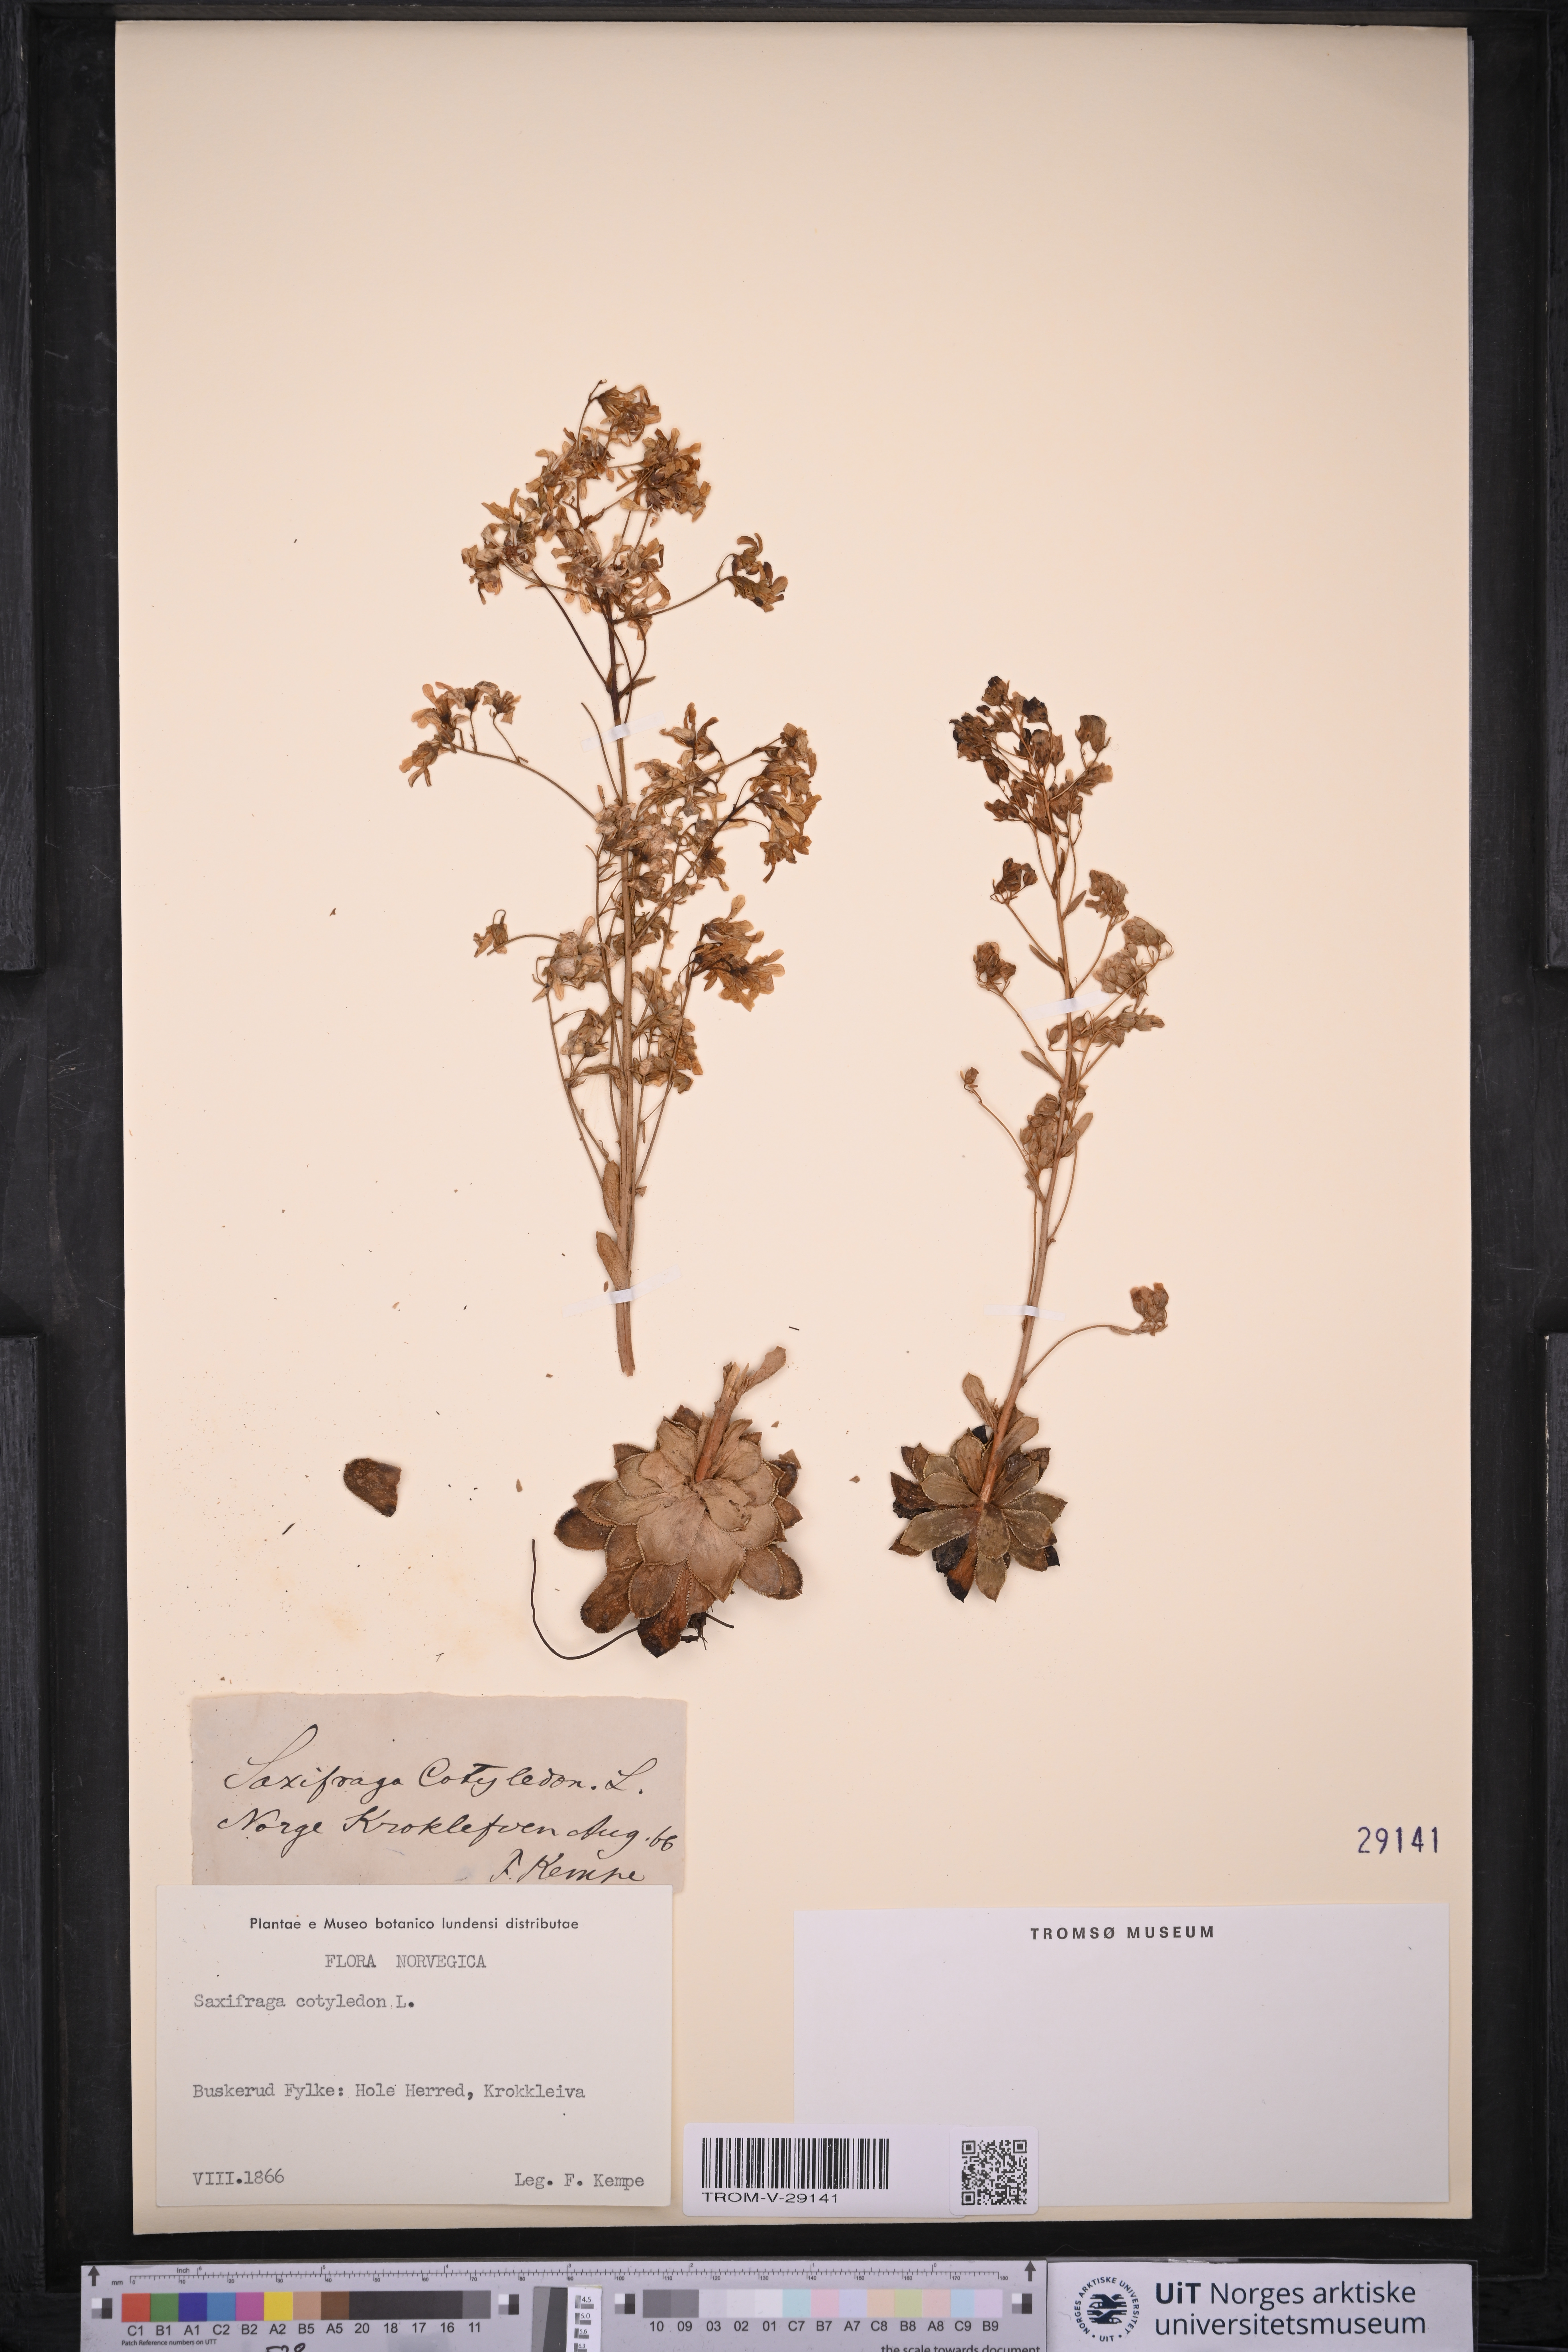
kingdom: Plantae
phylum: Tracheophyta
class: Magnoliopsida
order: Saxifragales
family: Saxifragaceae
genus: Saxifraga
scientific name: Saxifraga cotyledon
